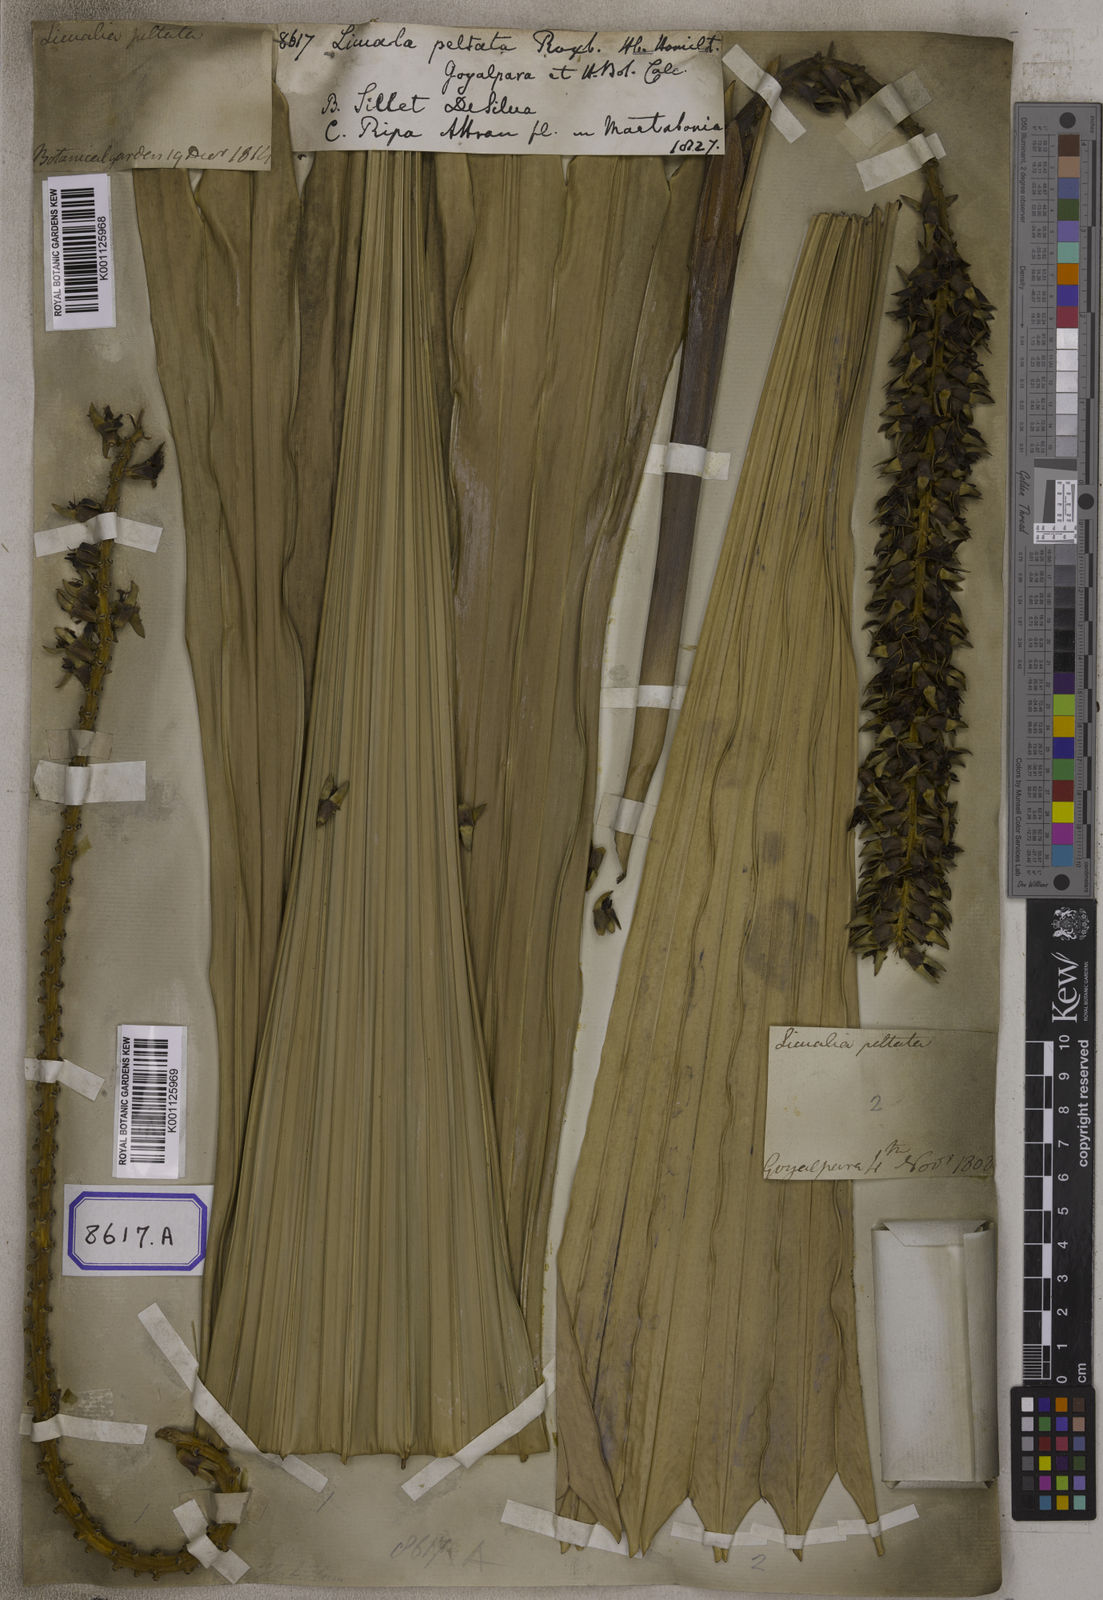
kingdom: Plantae
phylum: Tracheophyta
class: Liliopsida
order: Arecales
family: Arecaceae
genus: Licuala
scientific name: Licuala
